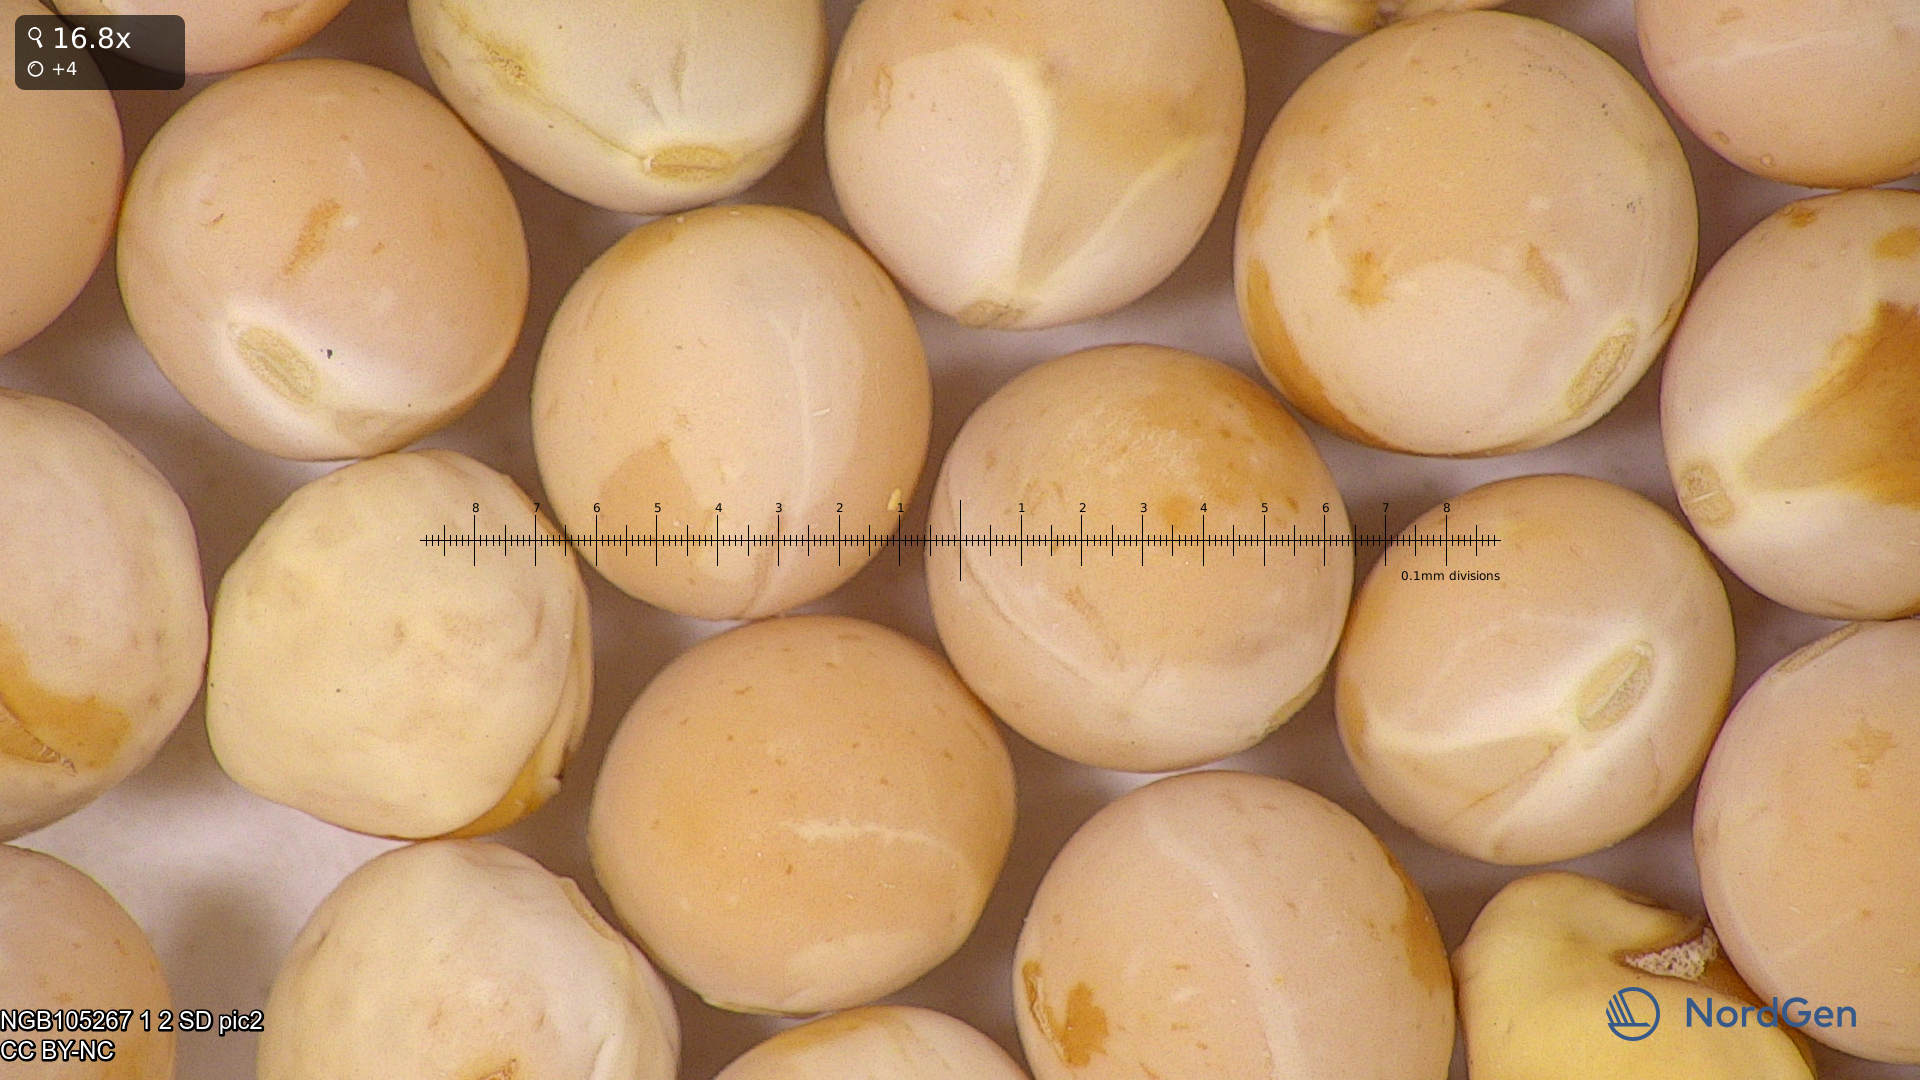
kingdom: Plantae
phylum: Tracheophyta
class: Magnoliopsida
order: Fabales
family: Fabaceae
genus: Lathyrus
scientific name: Lathyrus oleraceus
